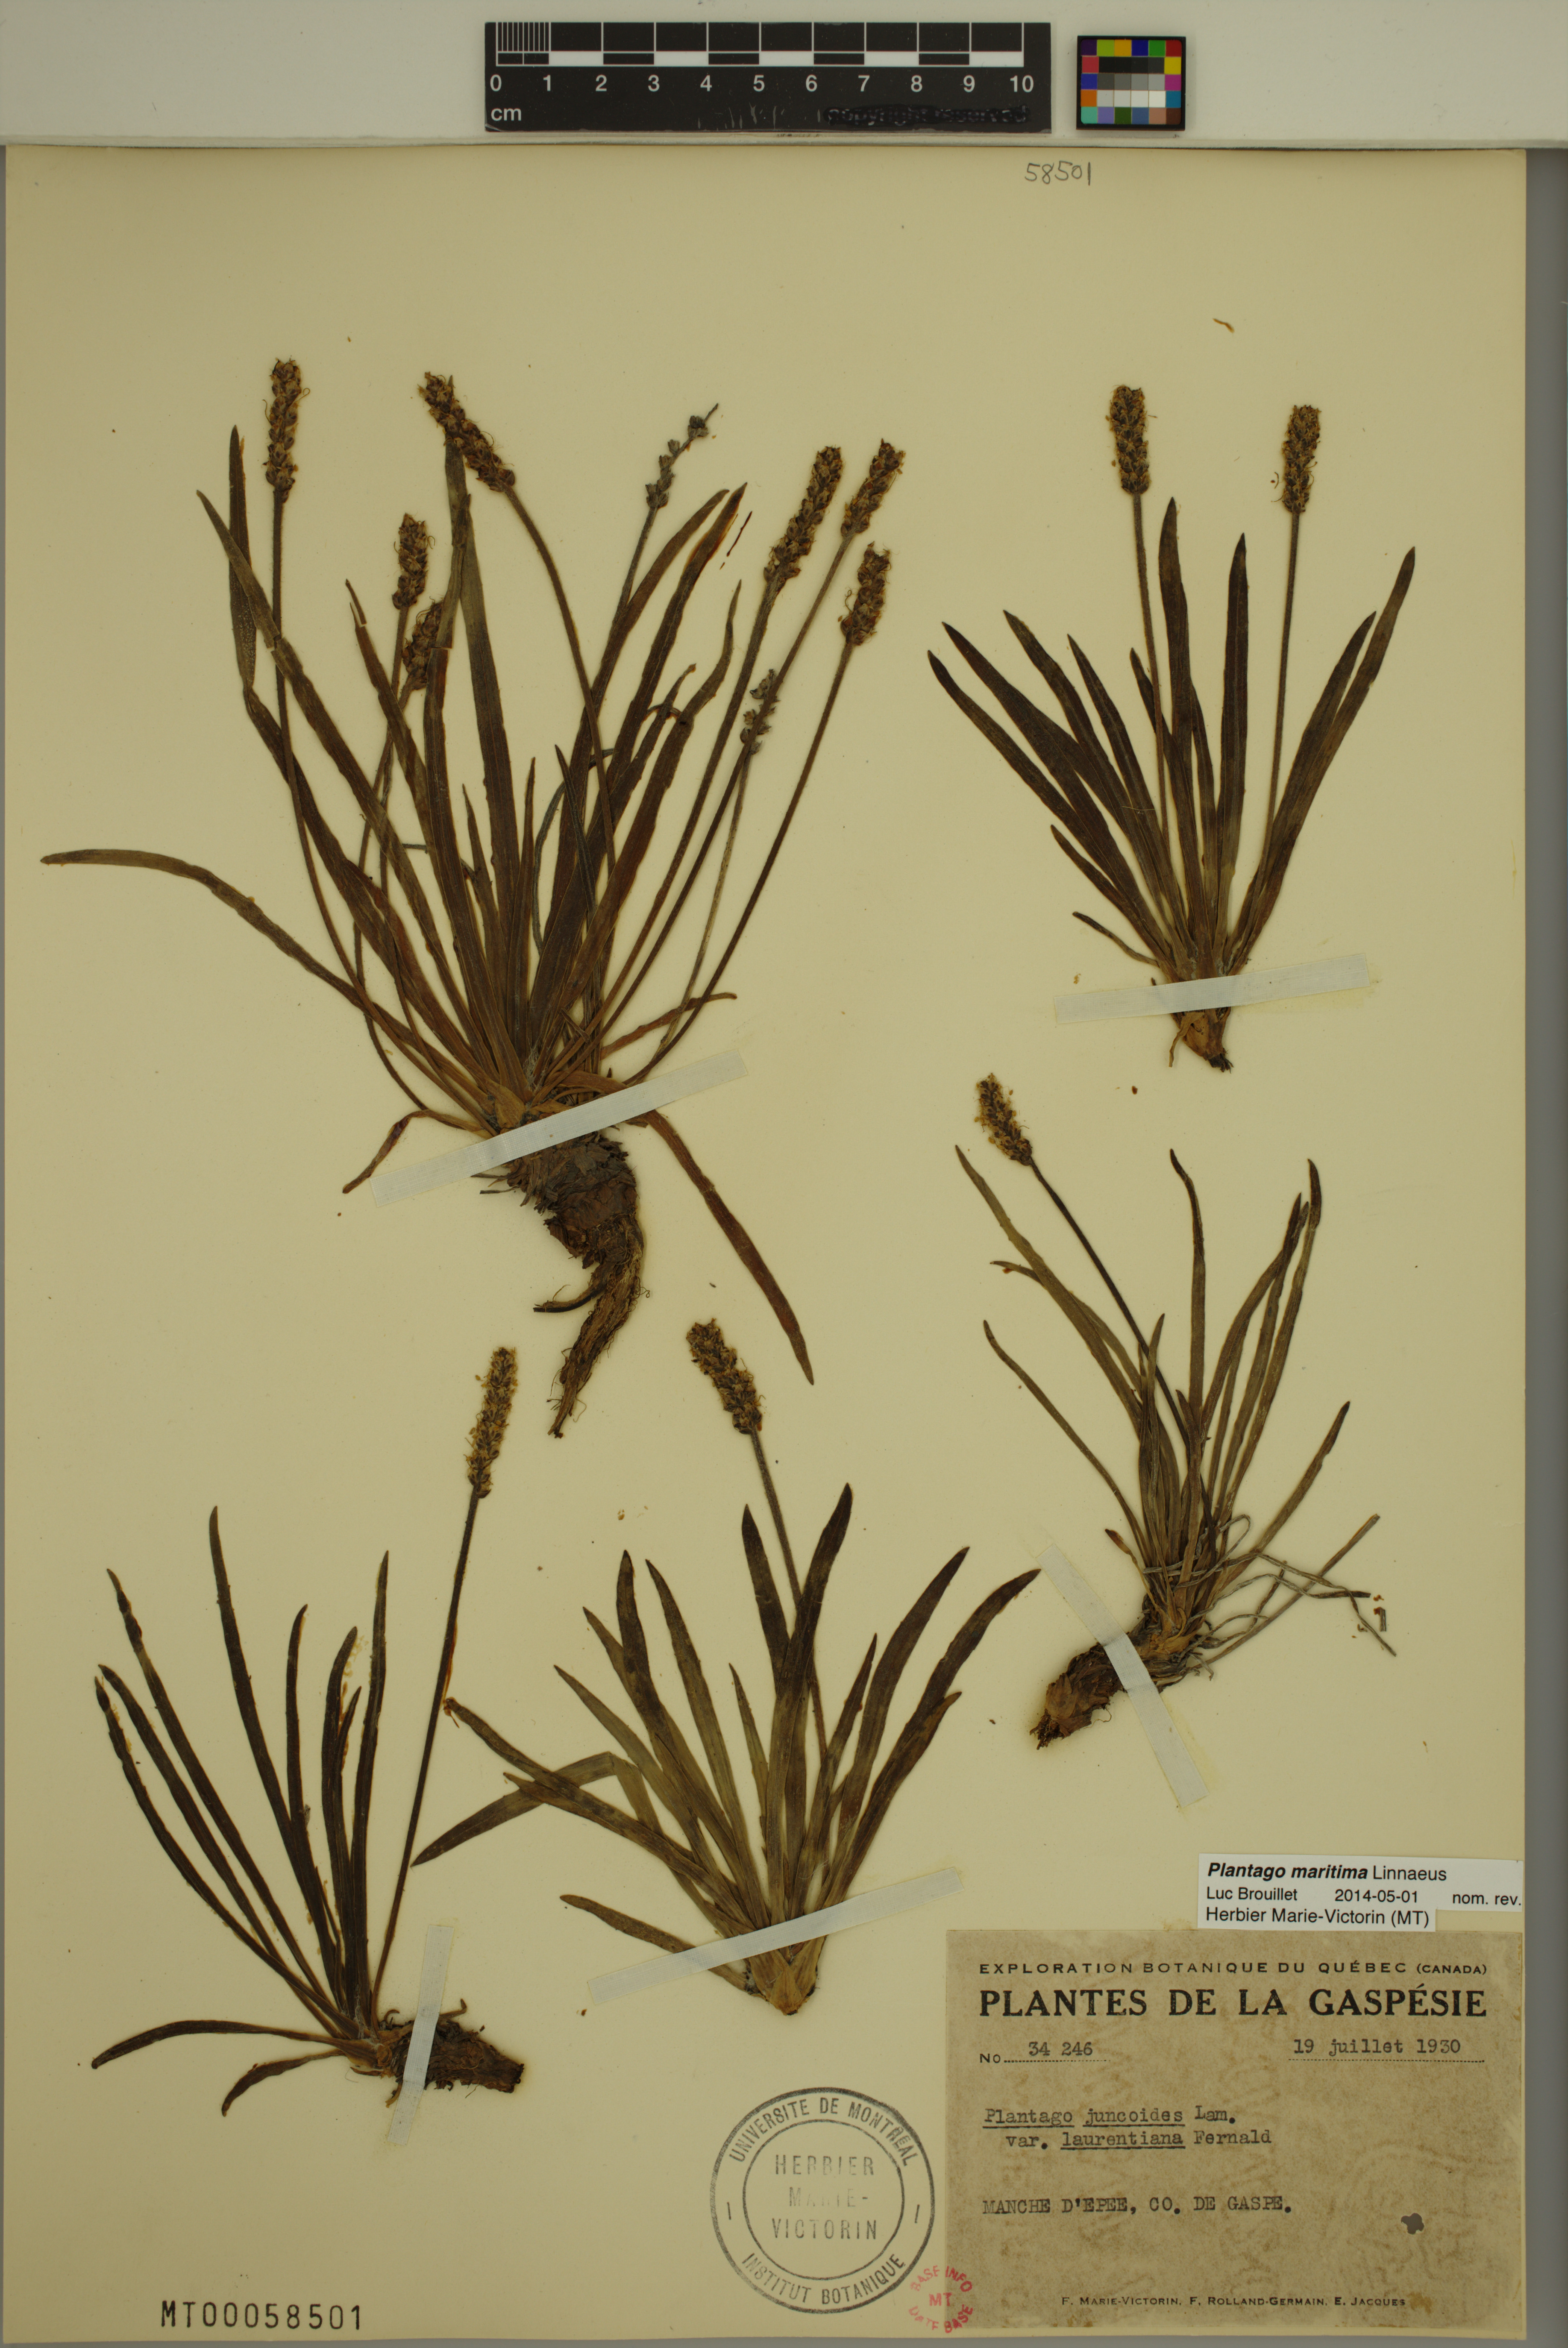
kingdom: Plantae
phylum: Tracheophyta
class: Magnoliopsida
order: Lamiales
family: Plantaginaceae
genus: Plantago
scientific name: Plantago maritima
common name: Sea plantain
